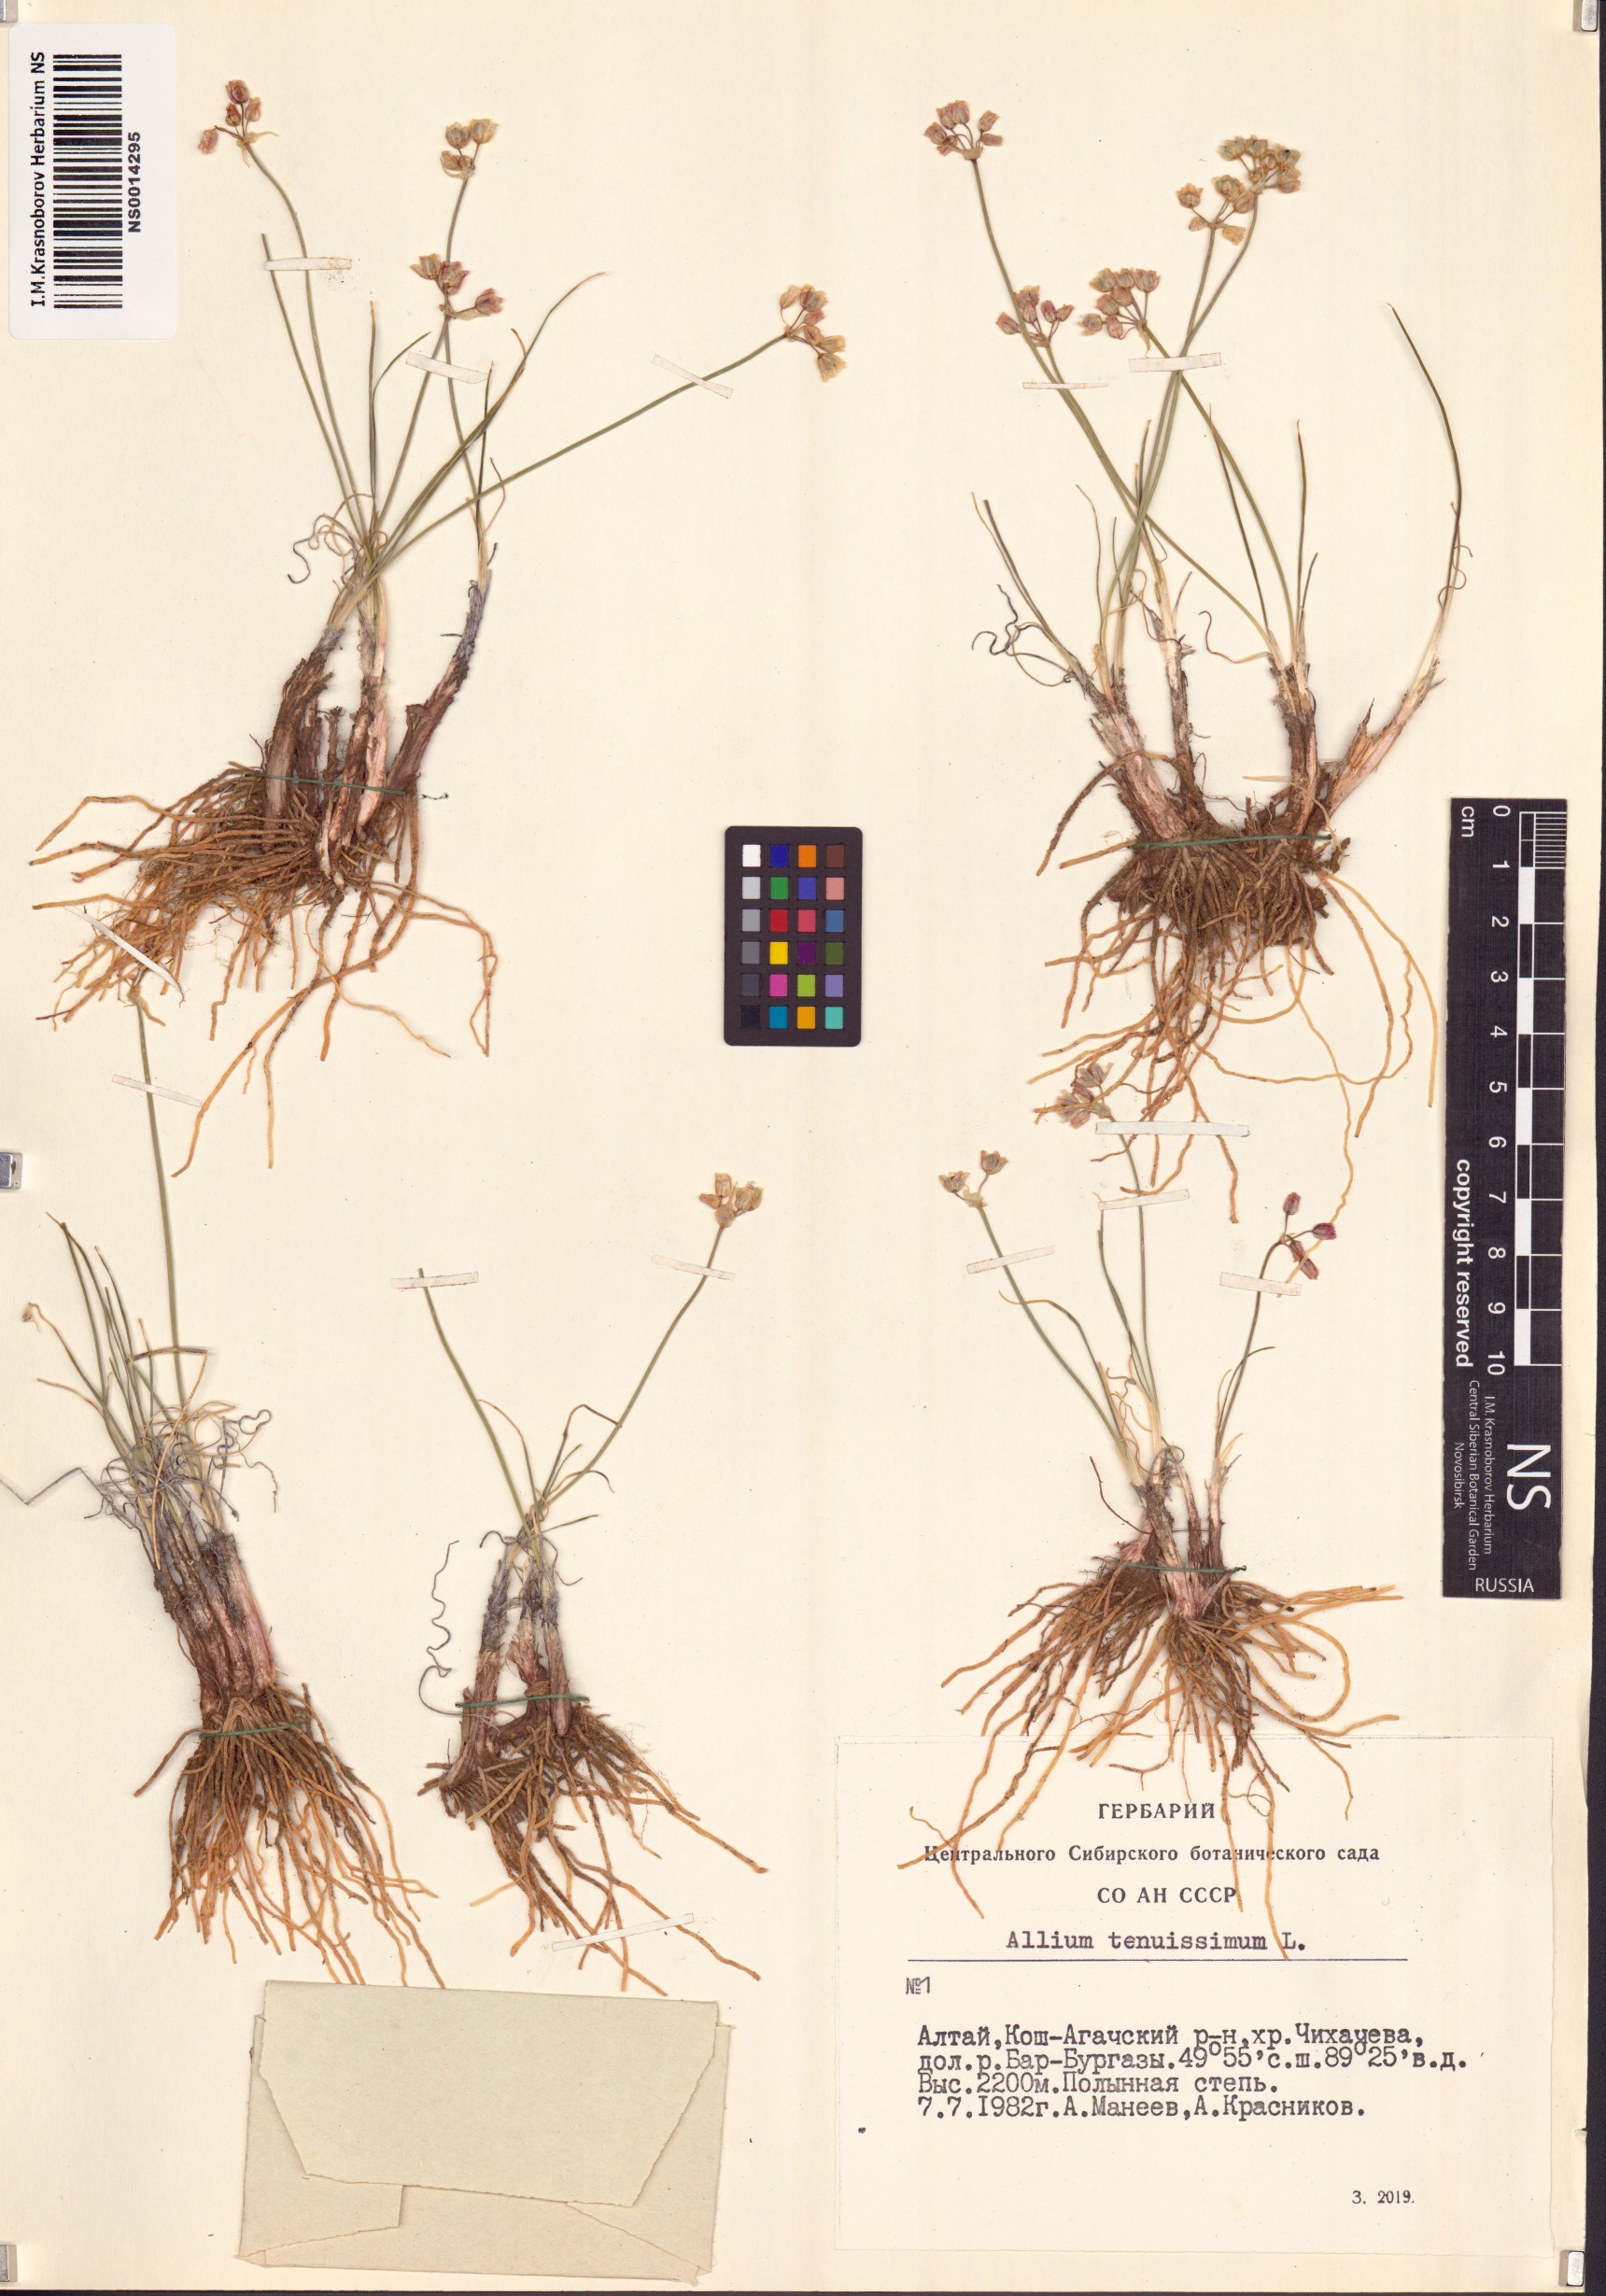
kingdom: Plantae
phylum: Tracheophyta
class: Liliopsida
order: Asparagales
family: Amaryllidaceae
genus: Allium
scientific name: Allium tenuissimum
